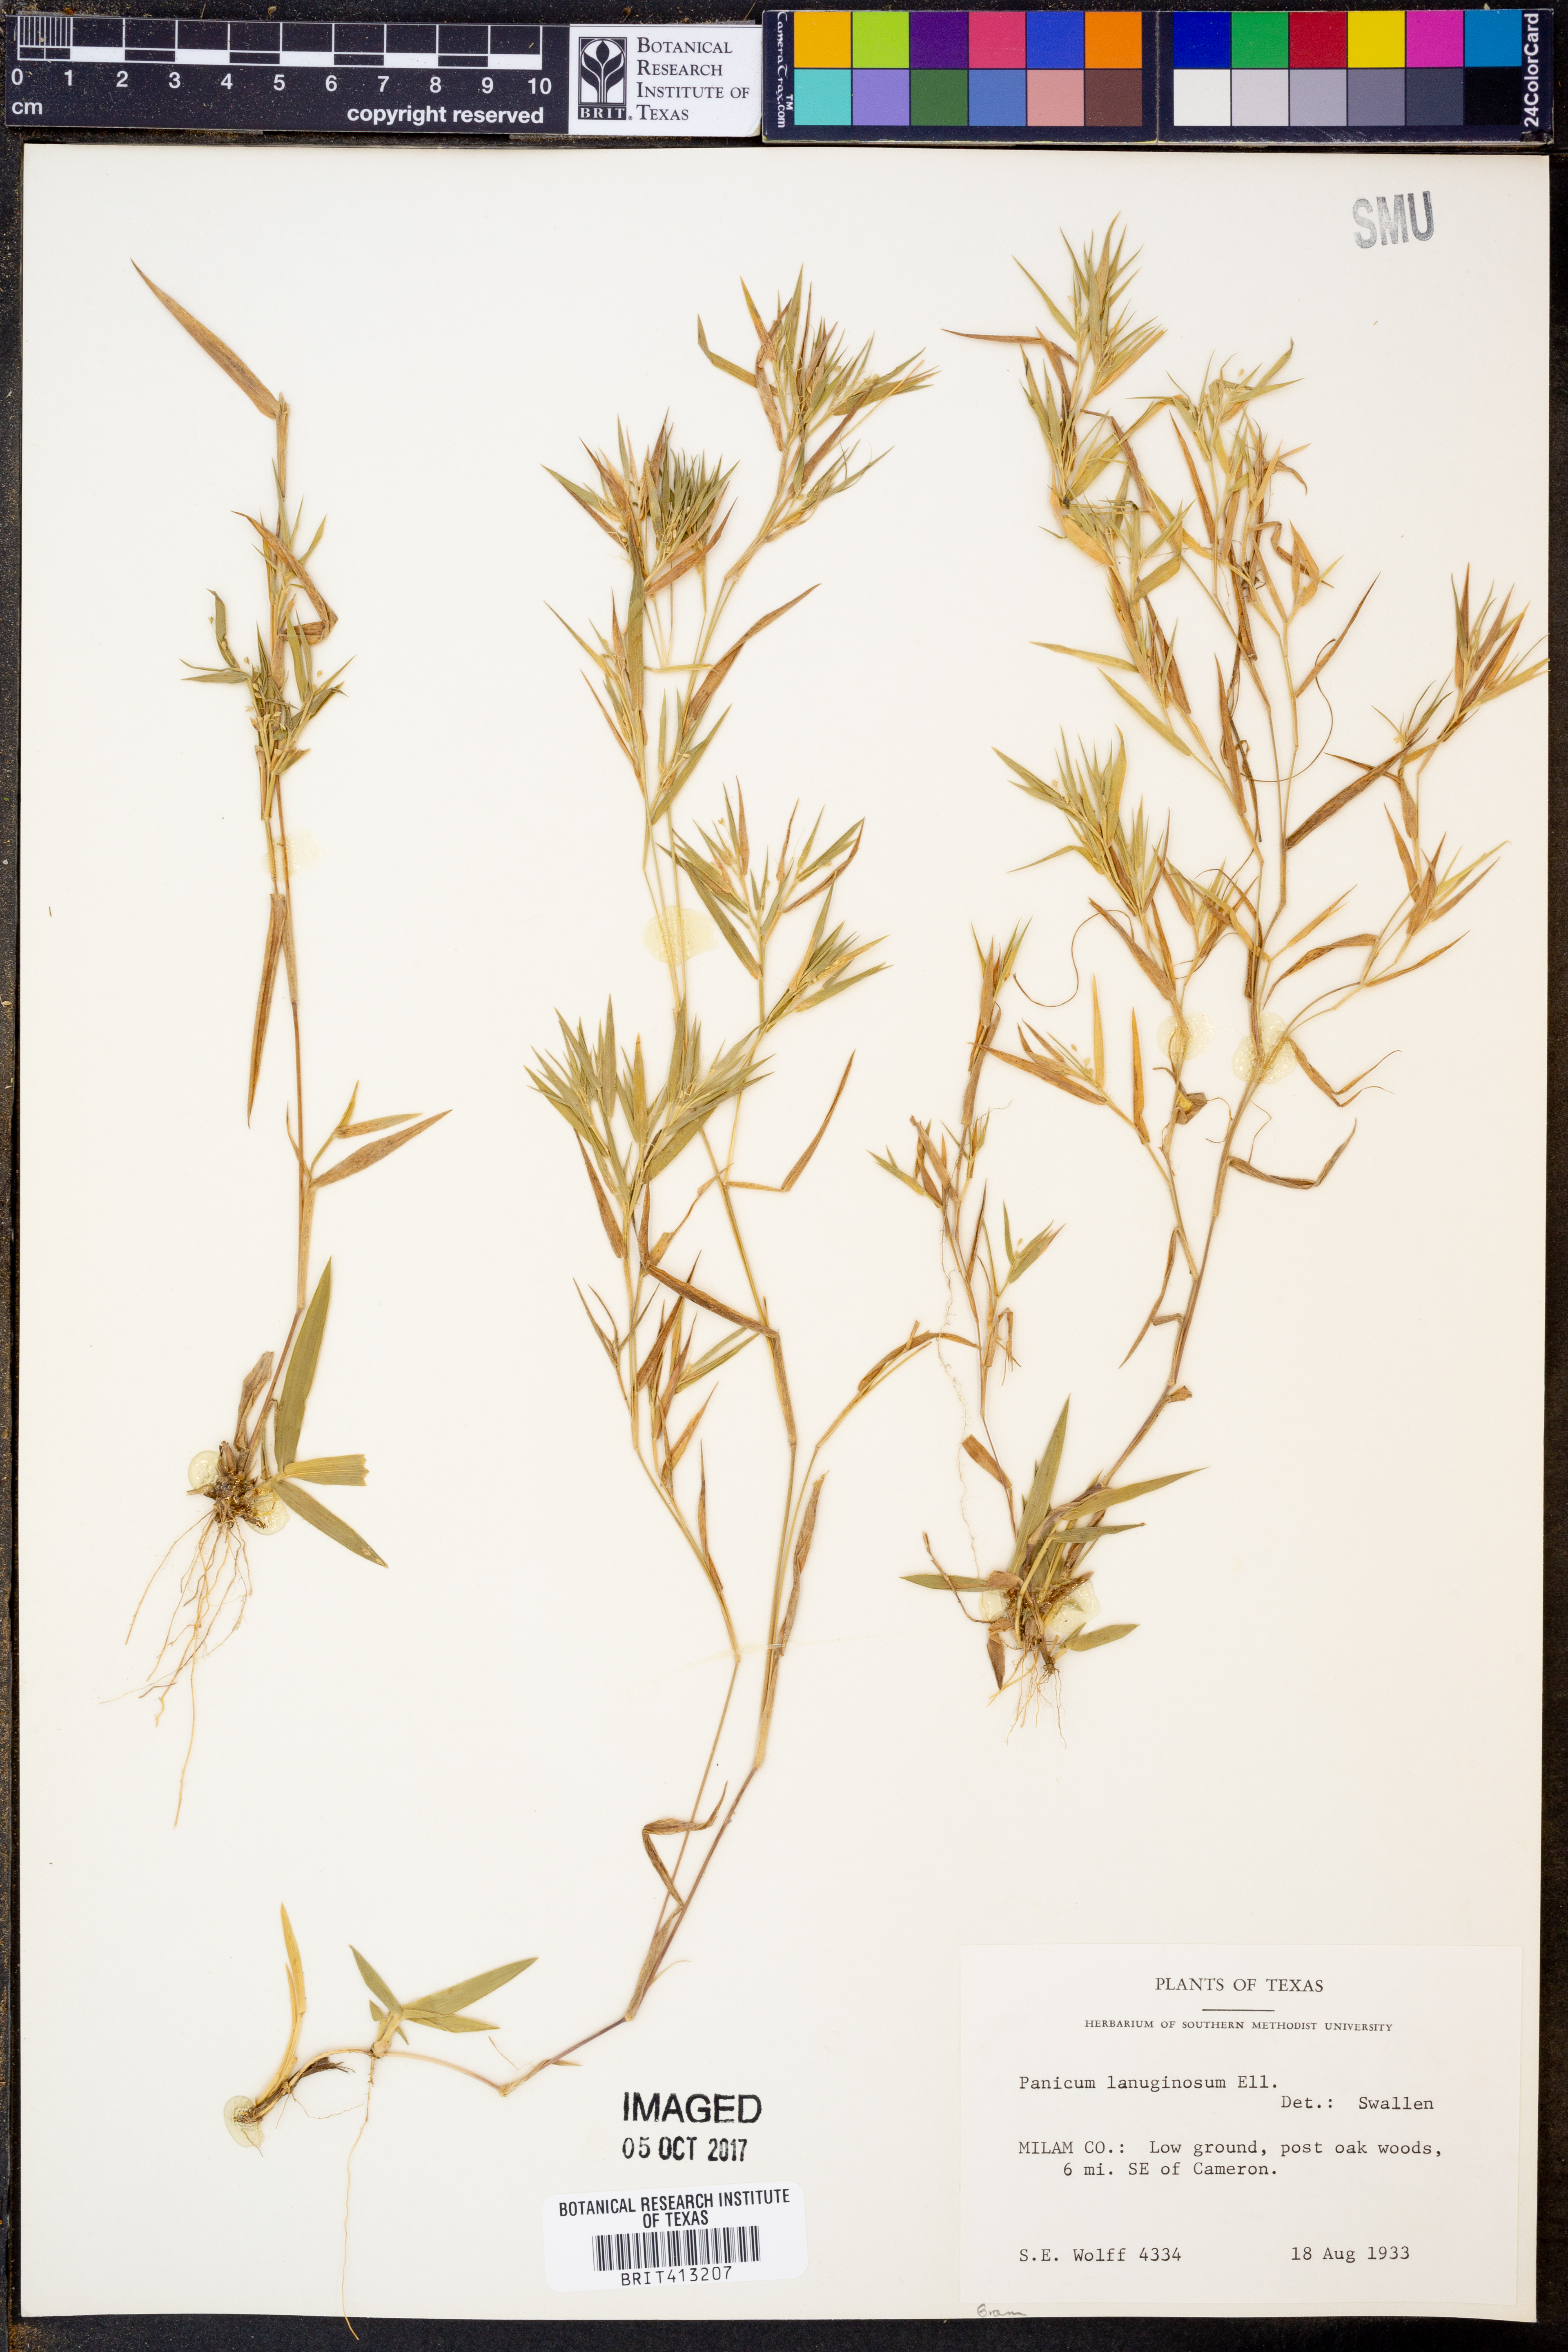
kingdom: Plantae
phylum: Tracheophyta
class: Liliopsida
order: Poales
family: Poaceae
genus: Dichanthelium
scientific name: Dichanthelium lanuginosum
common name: Woolly panicgrass
